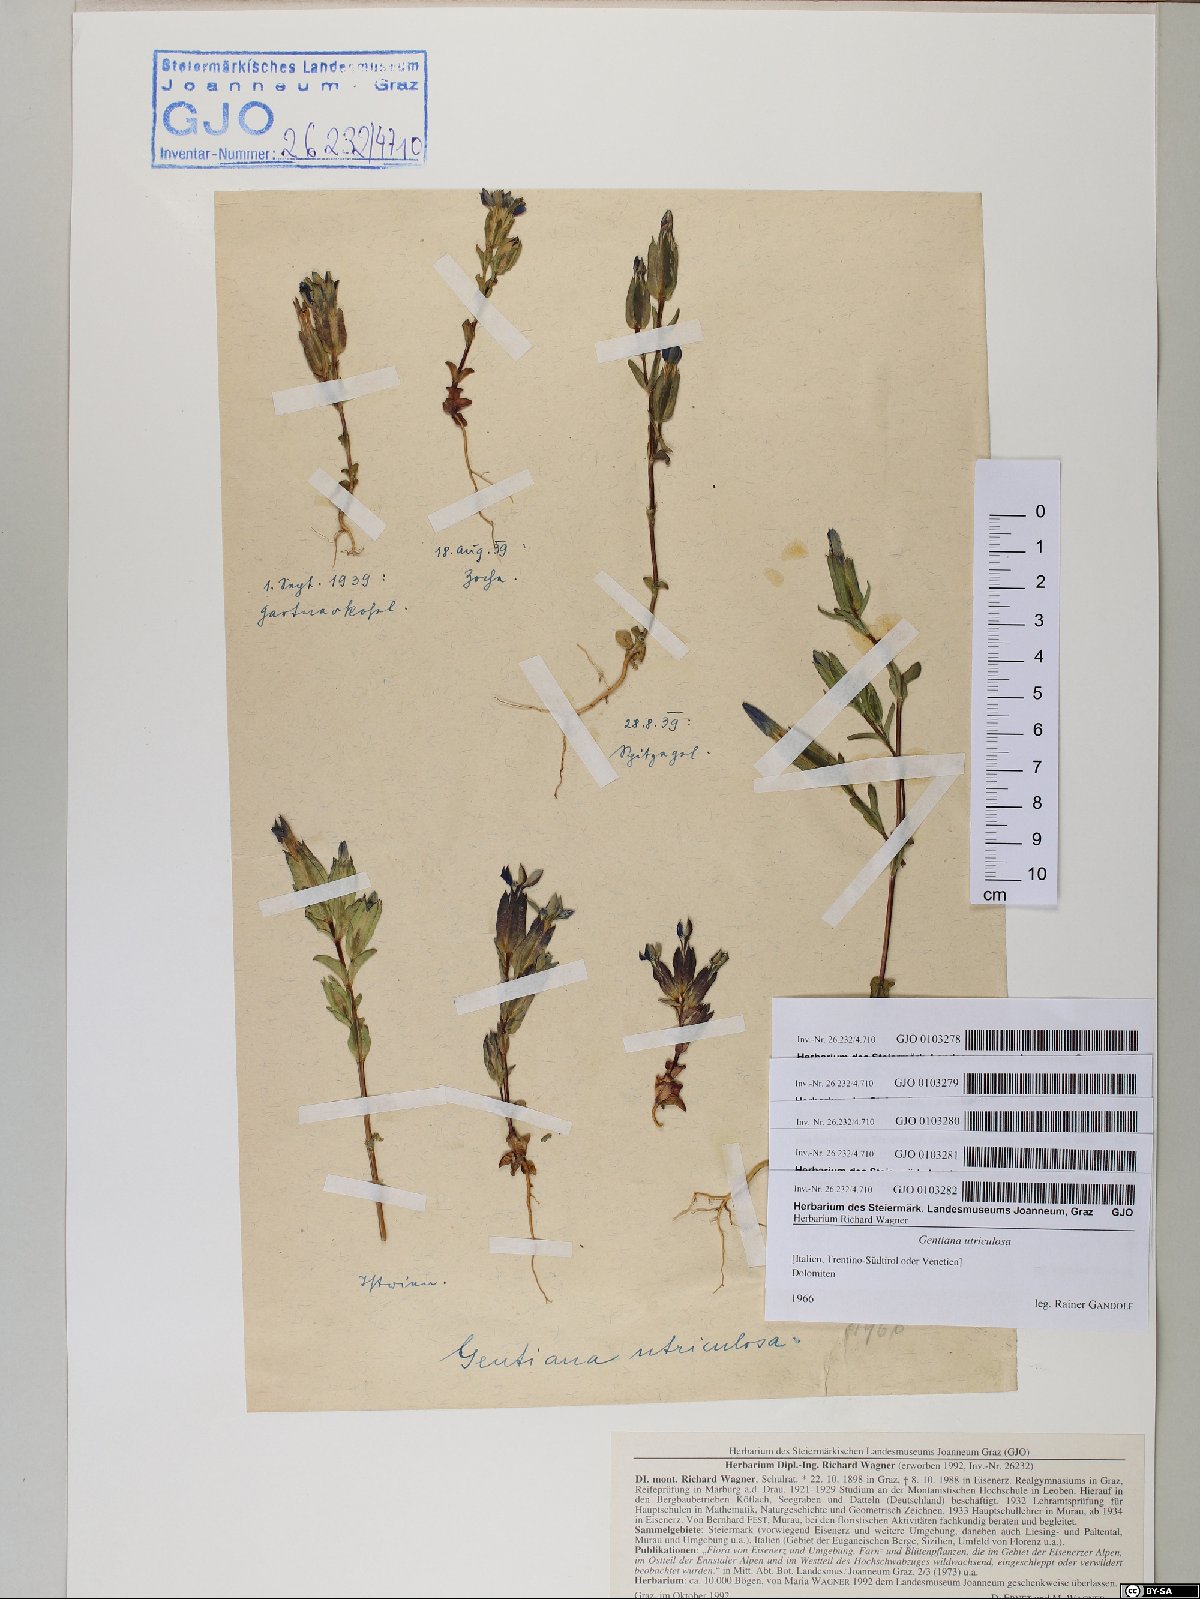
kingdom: Plantae
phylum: Tracheophyta
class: Magnoliopsida
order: Gentianales
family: Gentianaceae
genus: Gentiana
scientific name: Gentiana utriculosa
